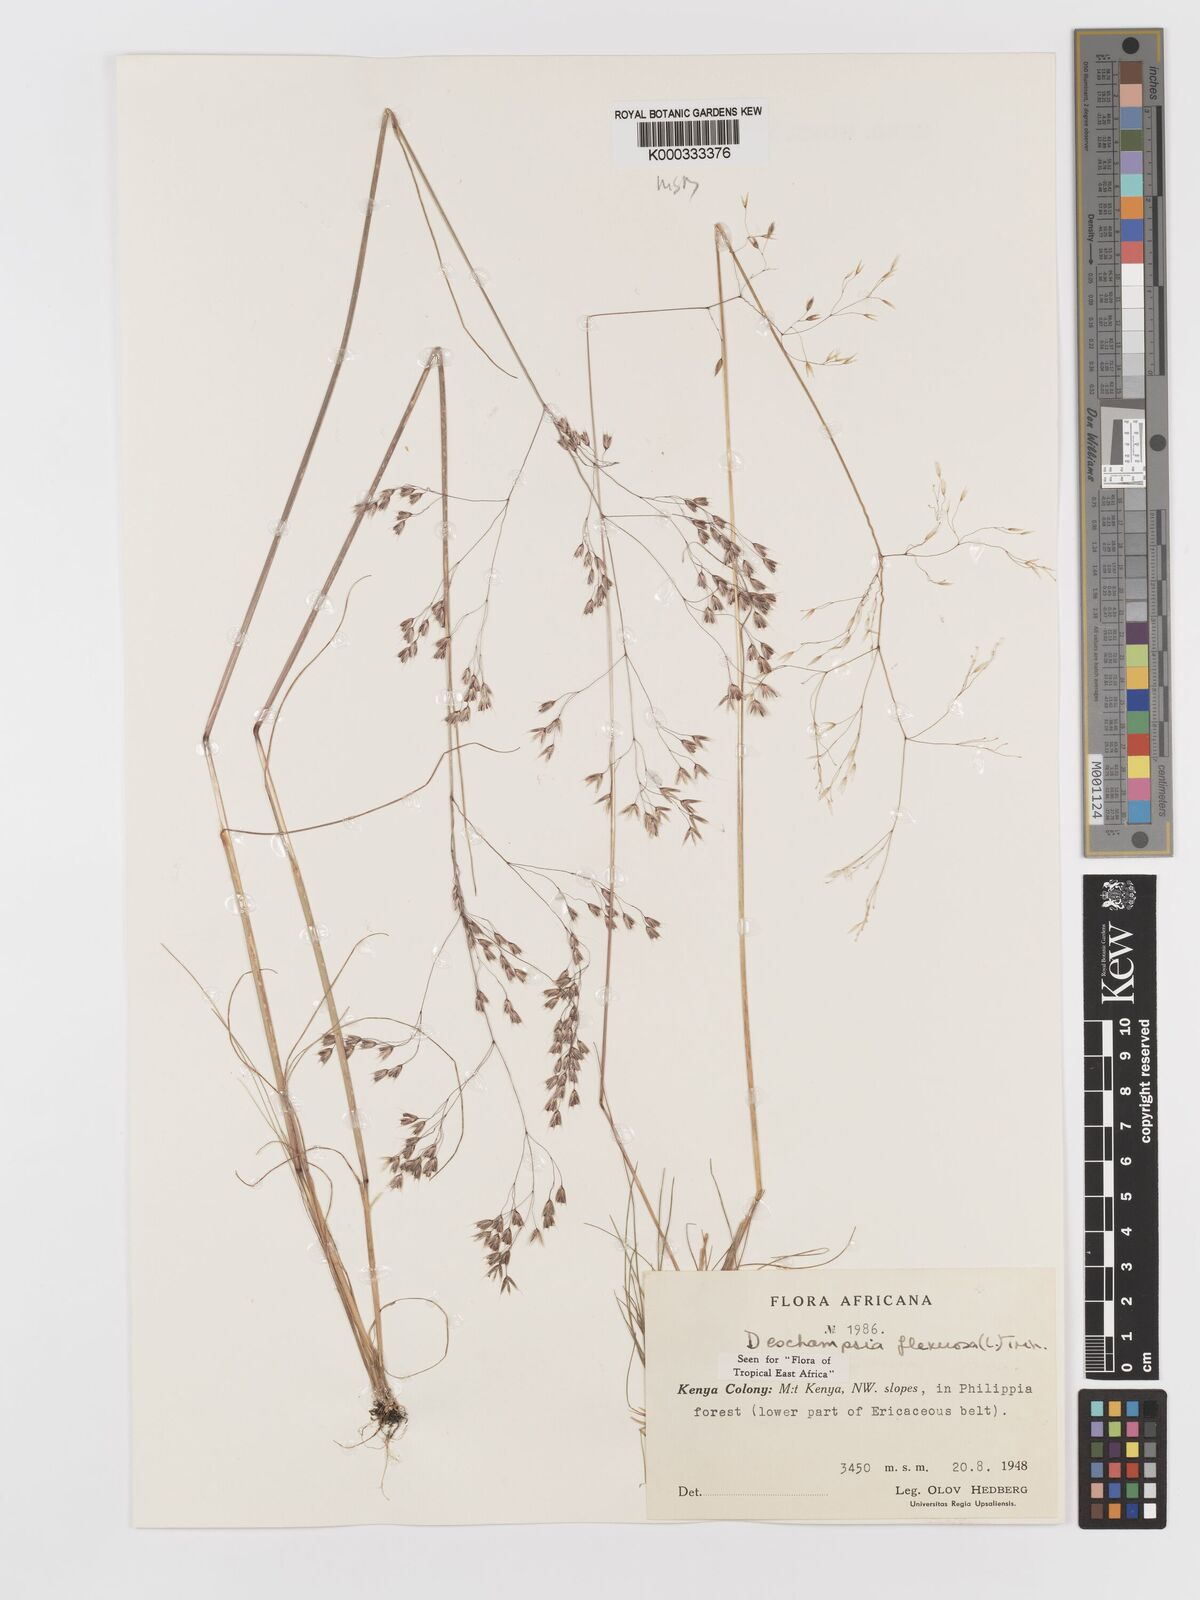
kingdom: Plantae
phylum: Tracheophyta
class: Liliopsida
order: Poales
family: Poaceae
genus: Avenella
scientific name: Avenella flexuosa
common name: Wavy hairgrass
